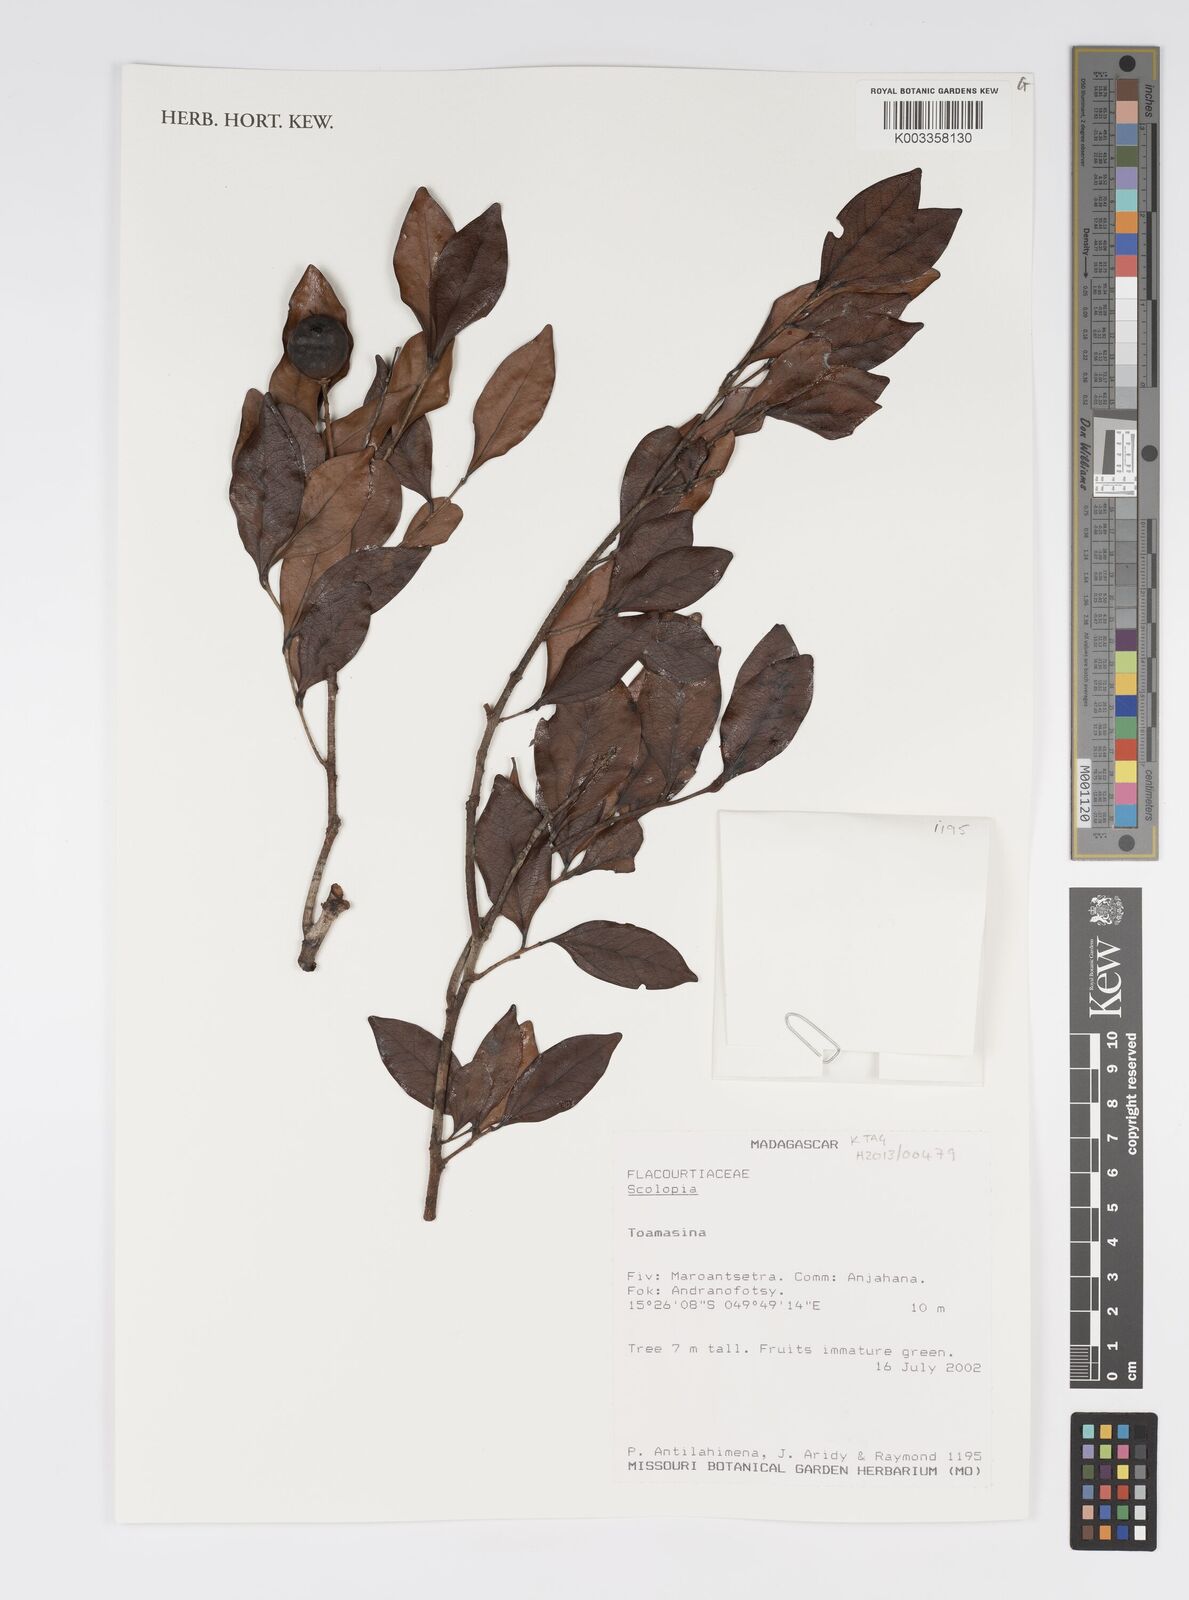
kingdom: Plantae
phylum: Tracheophyta
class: Magnoliopsida
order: Malpighiales
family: Salicaceae
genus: Scolopia
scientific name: Scolopia
